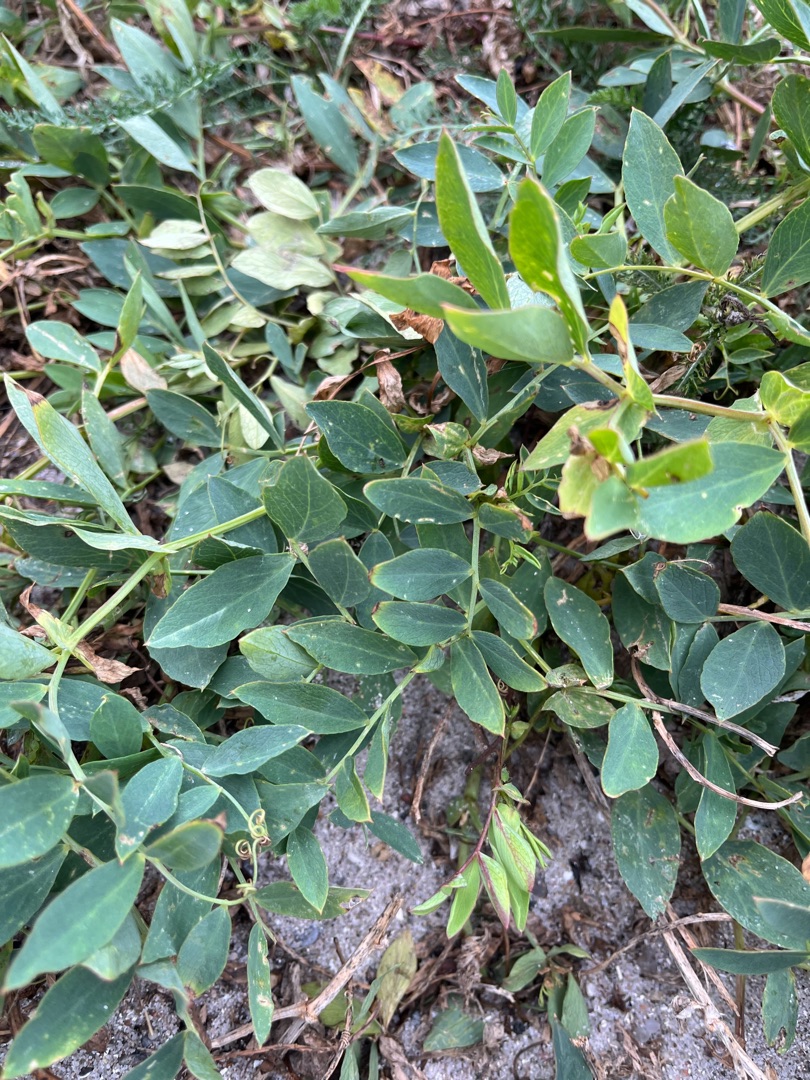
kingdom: Plantae
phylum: Tracheophyta
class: Magnoliopsida
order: Fabales
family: Fabaceae
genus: Lathyrus
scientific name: Lathyrus japonicus
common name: Strand-fladbælg
